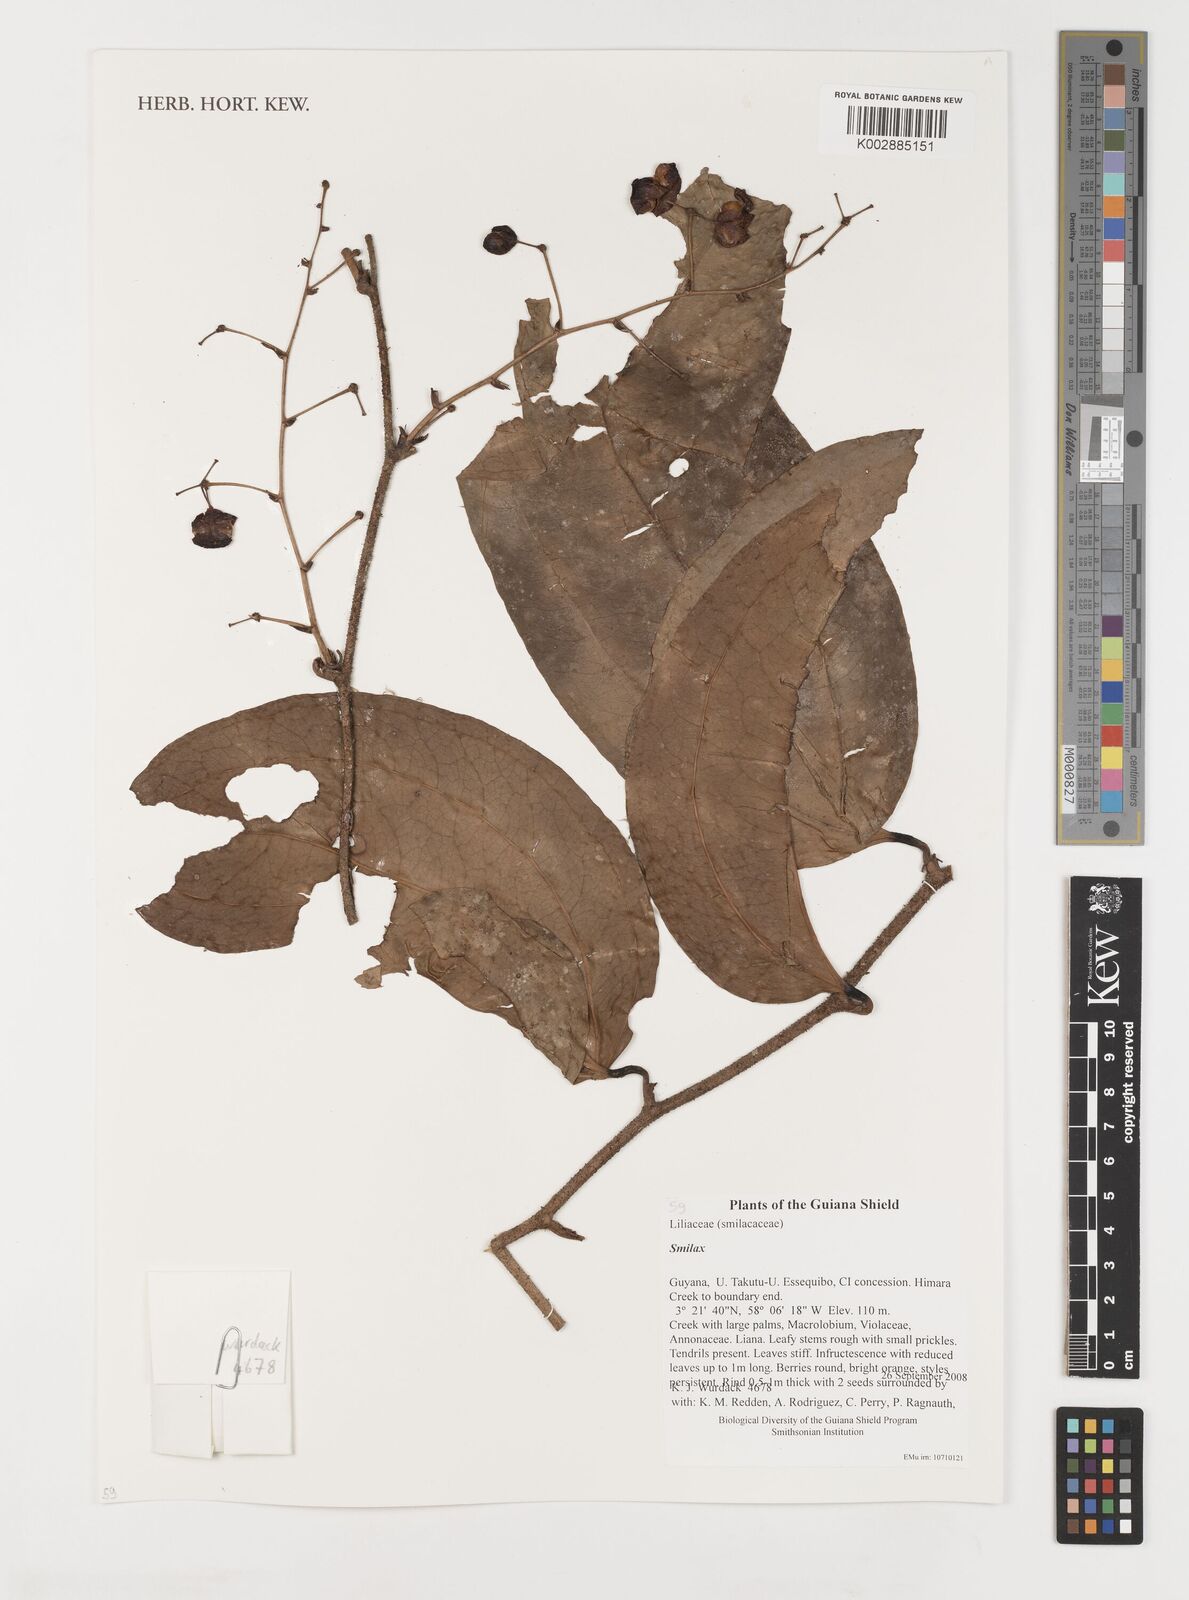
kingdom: Plantae
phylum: Tracheophyta
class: Liliopsida
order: Liliales
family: Smilacaceae
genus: Smilax
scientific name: Smilax
